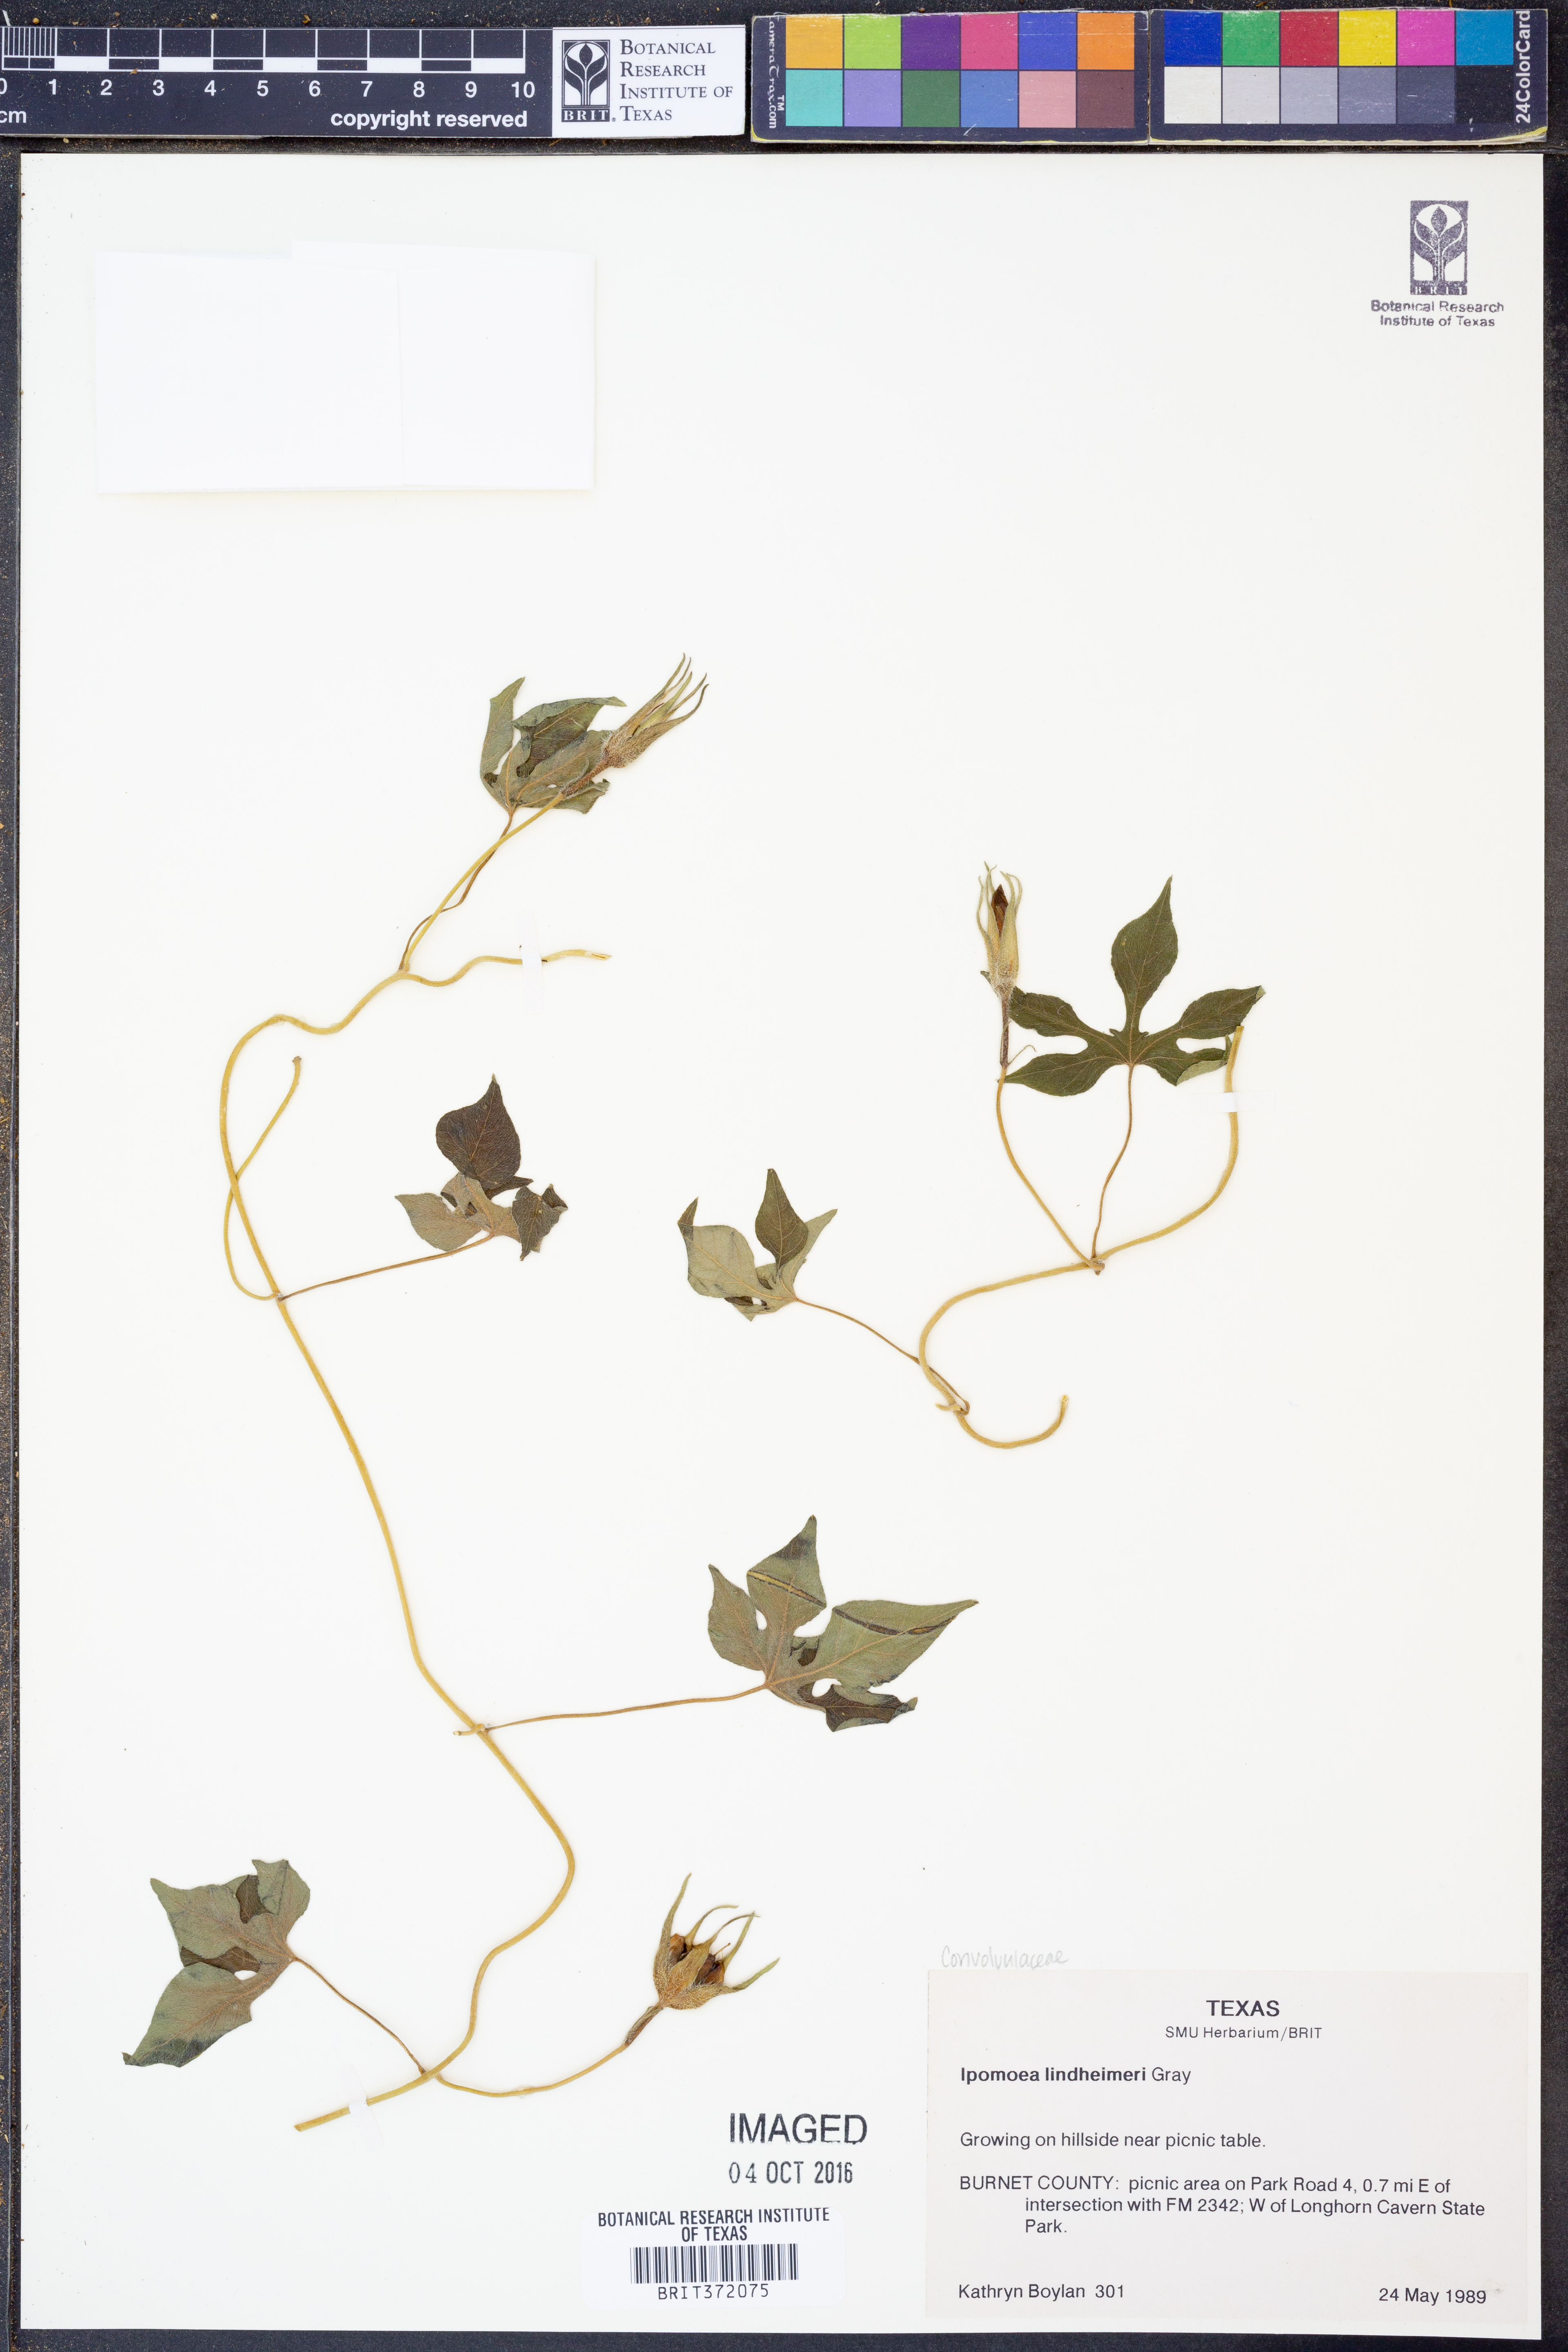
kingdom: Plantae
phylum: Tracheophyta
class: Magnoliopsida
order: Solanales
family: Convolvulaceae
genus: Ipomoea
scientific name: Ipomoea lindheimeri
